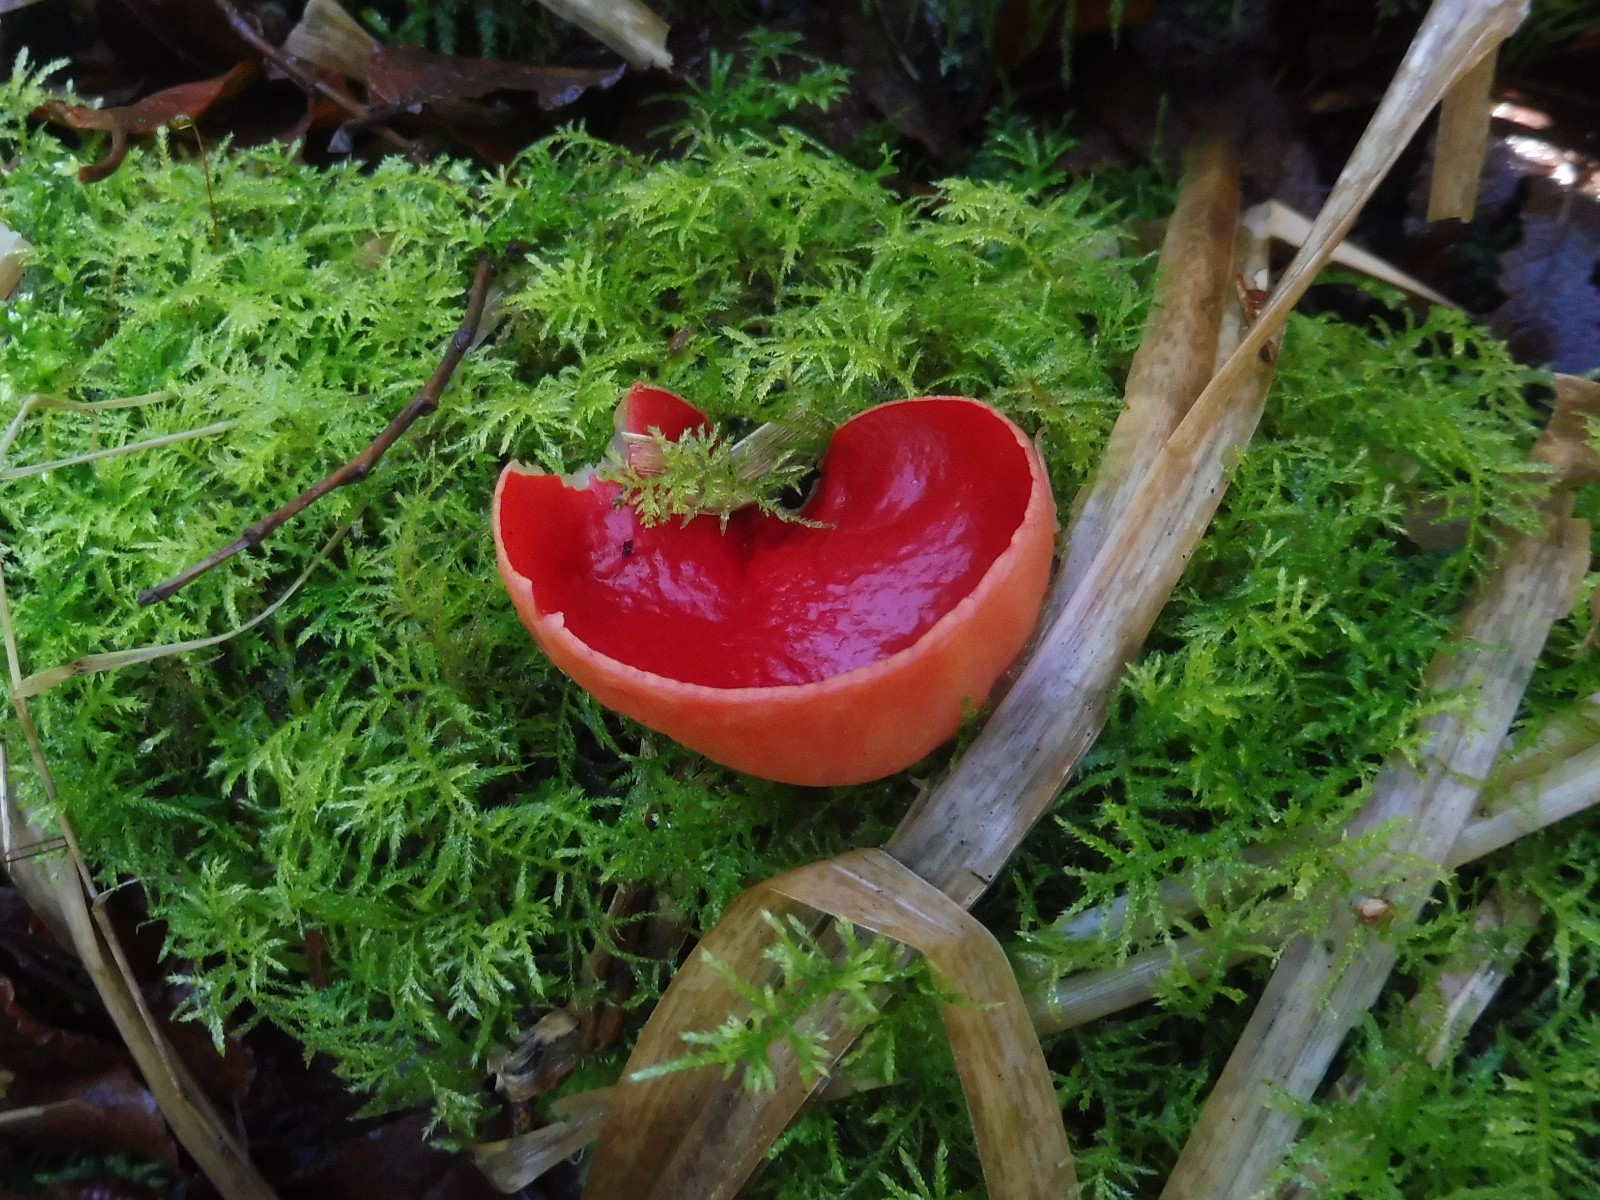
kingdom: Fungi
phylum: Ascomycota
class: Pezizomycetes
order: Pezizales
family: Sarcoscyphaceae
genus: Sarcoscypha
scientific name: Sarcoscypha austriaca
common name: krølhåret pragtbæger
